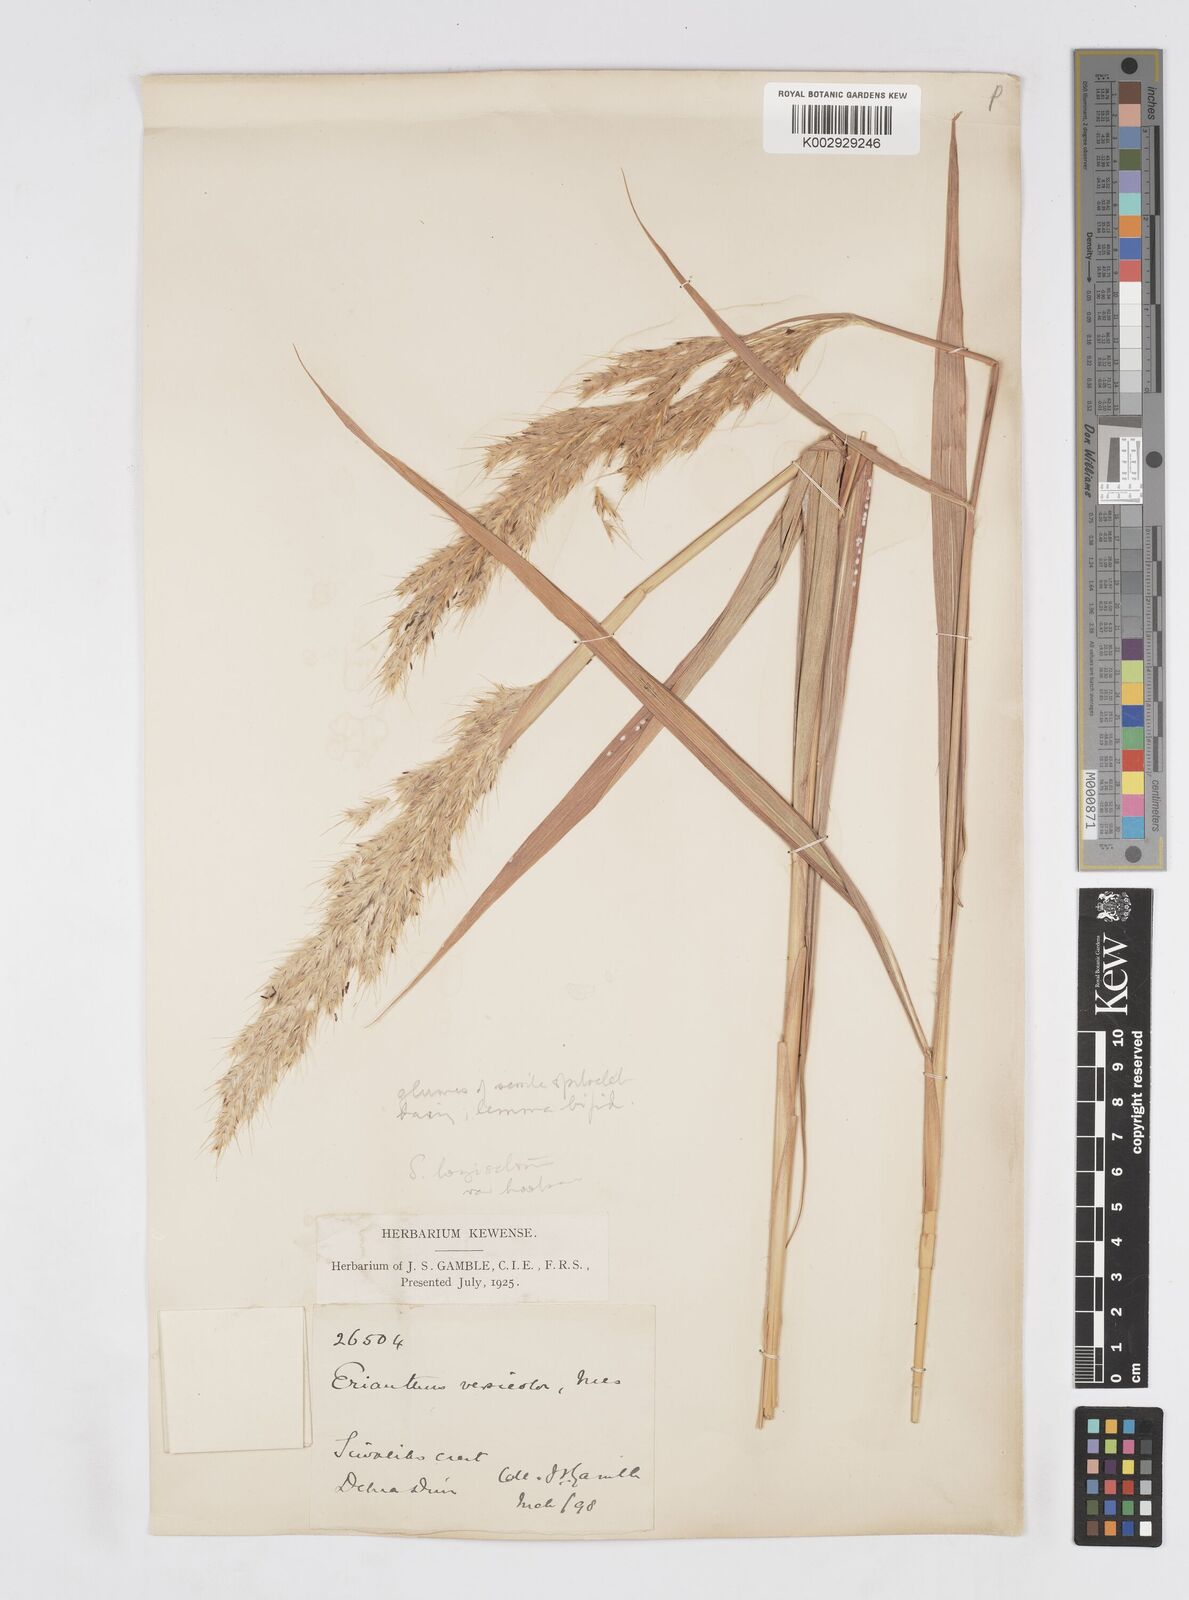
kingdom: Plantae
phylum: Tracheophyta
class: Liliopsida
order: Poales
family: Poaceae
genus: Saccharum
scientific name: Saccharum longesetosum
